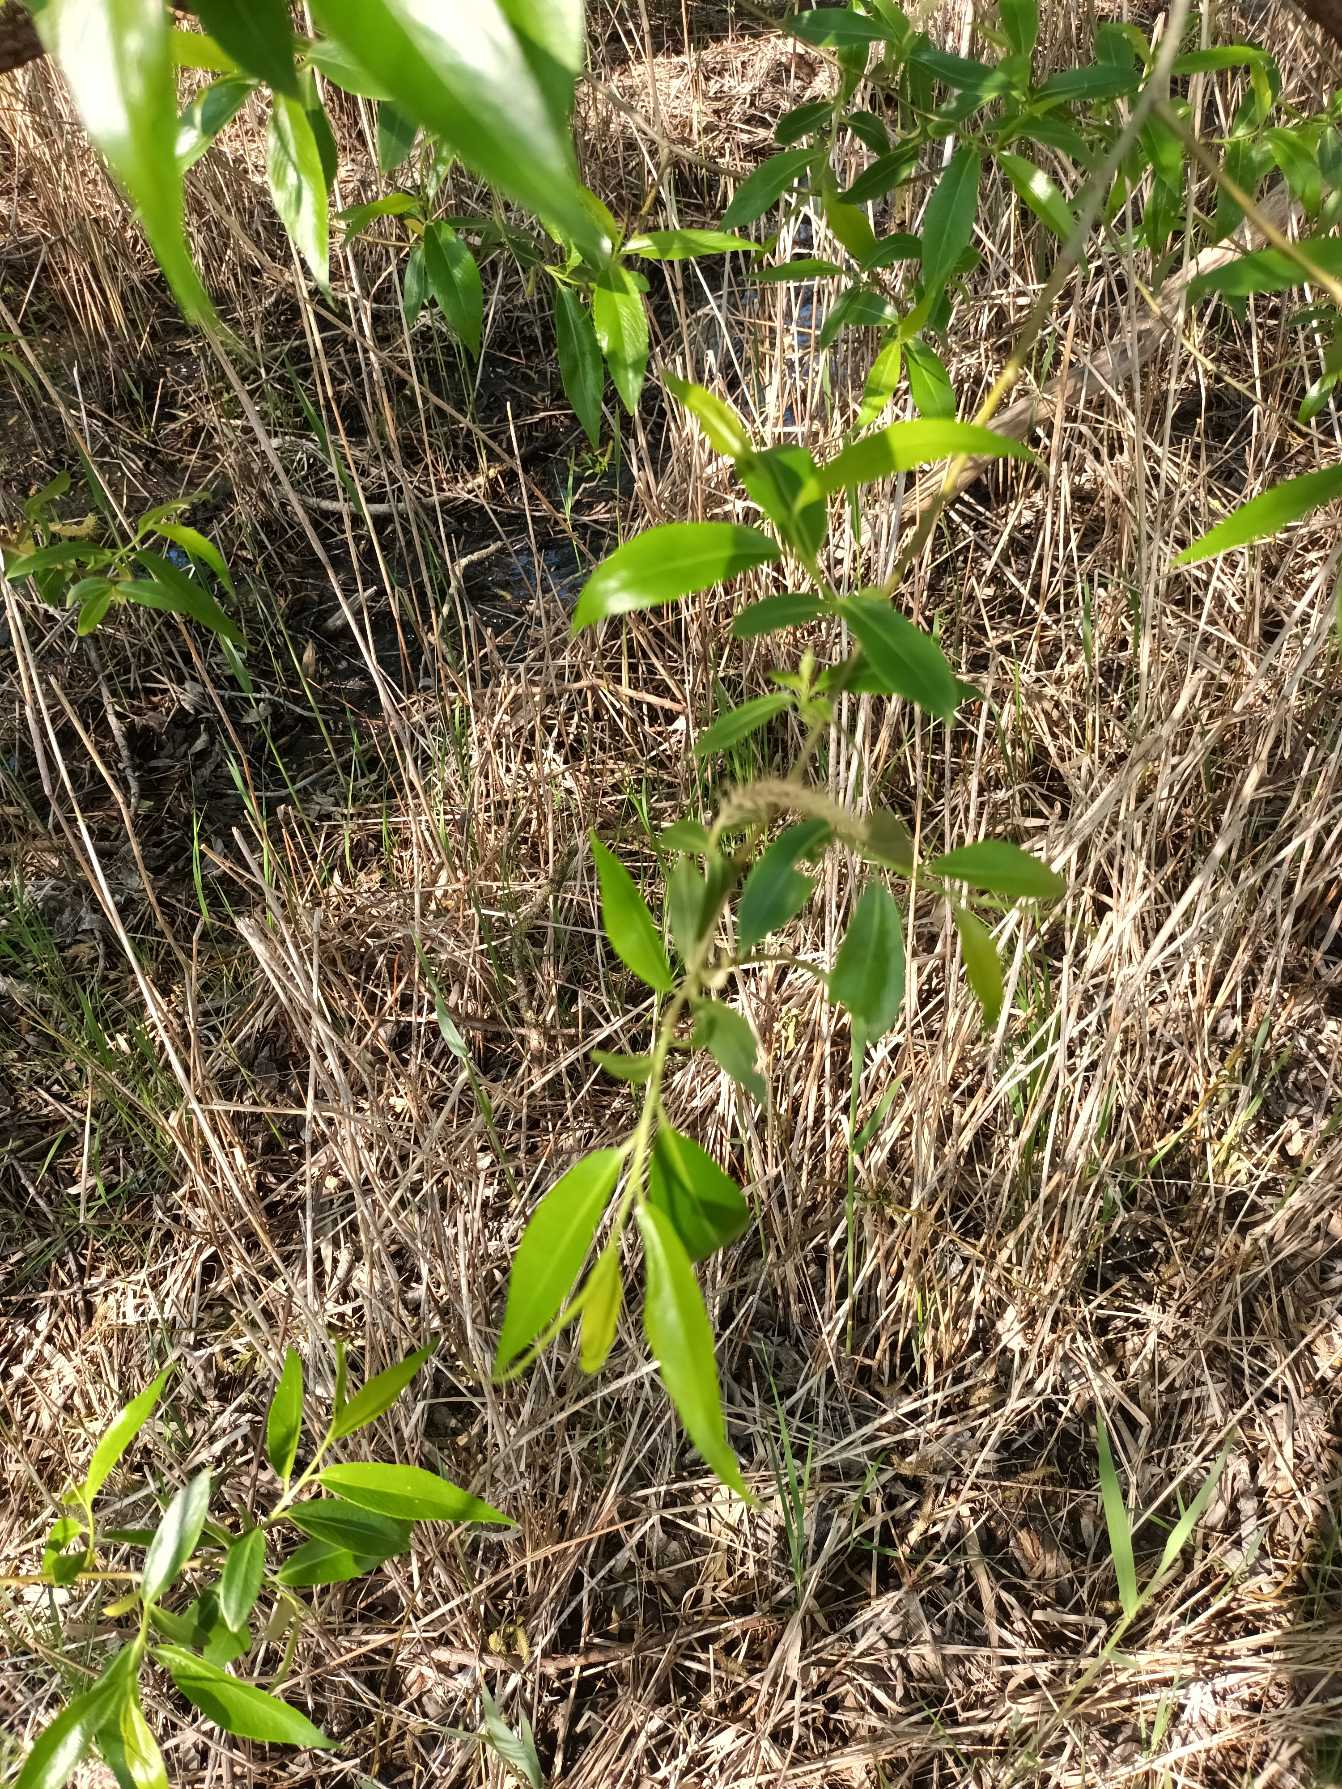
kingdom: Plantae
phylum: Tracheophyta
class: Magnoliopsida
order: Malpighiales
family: Salicaceae
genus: Salix
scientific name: Salix alba
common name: Skør-pil
